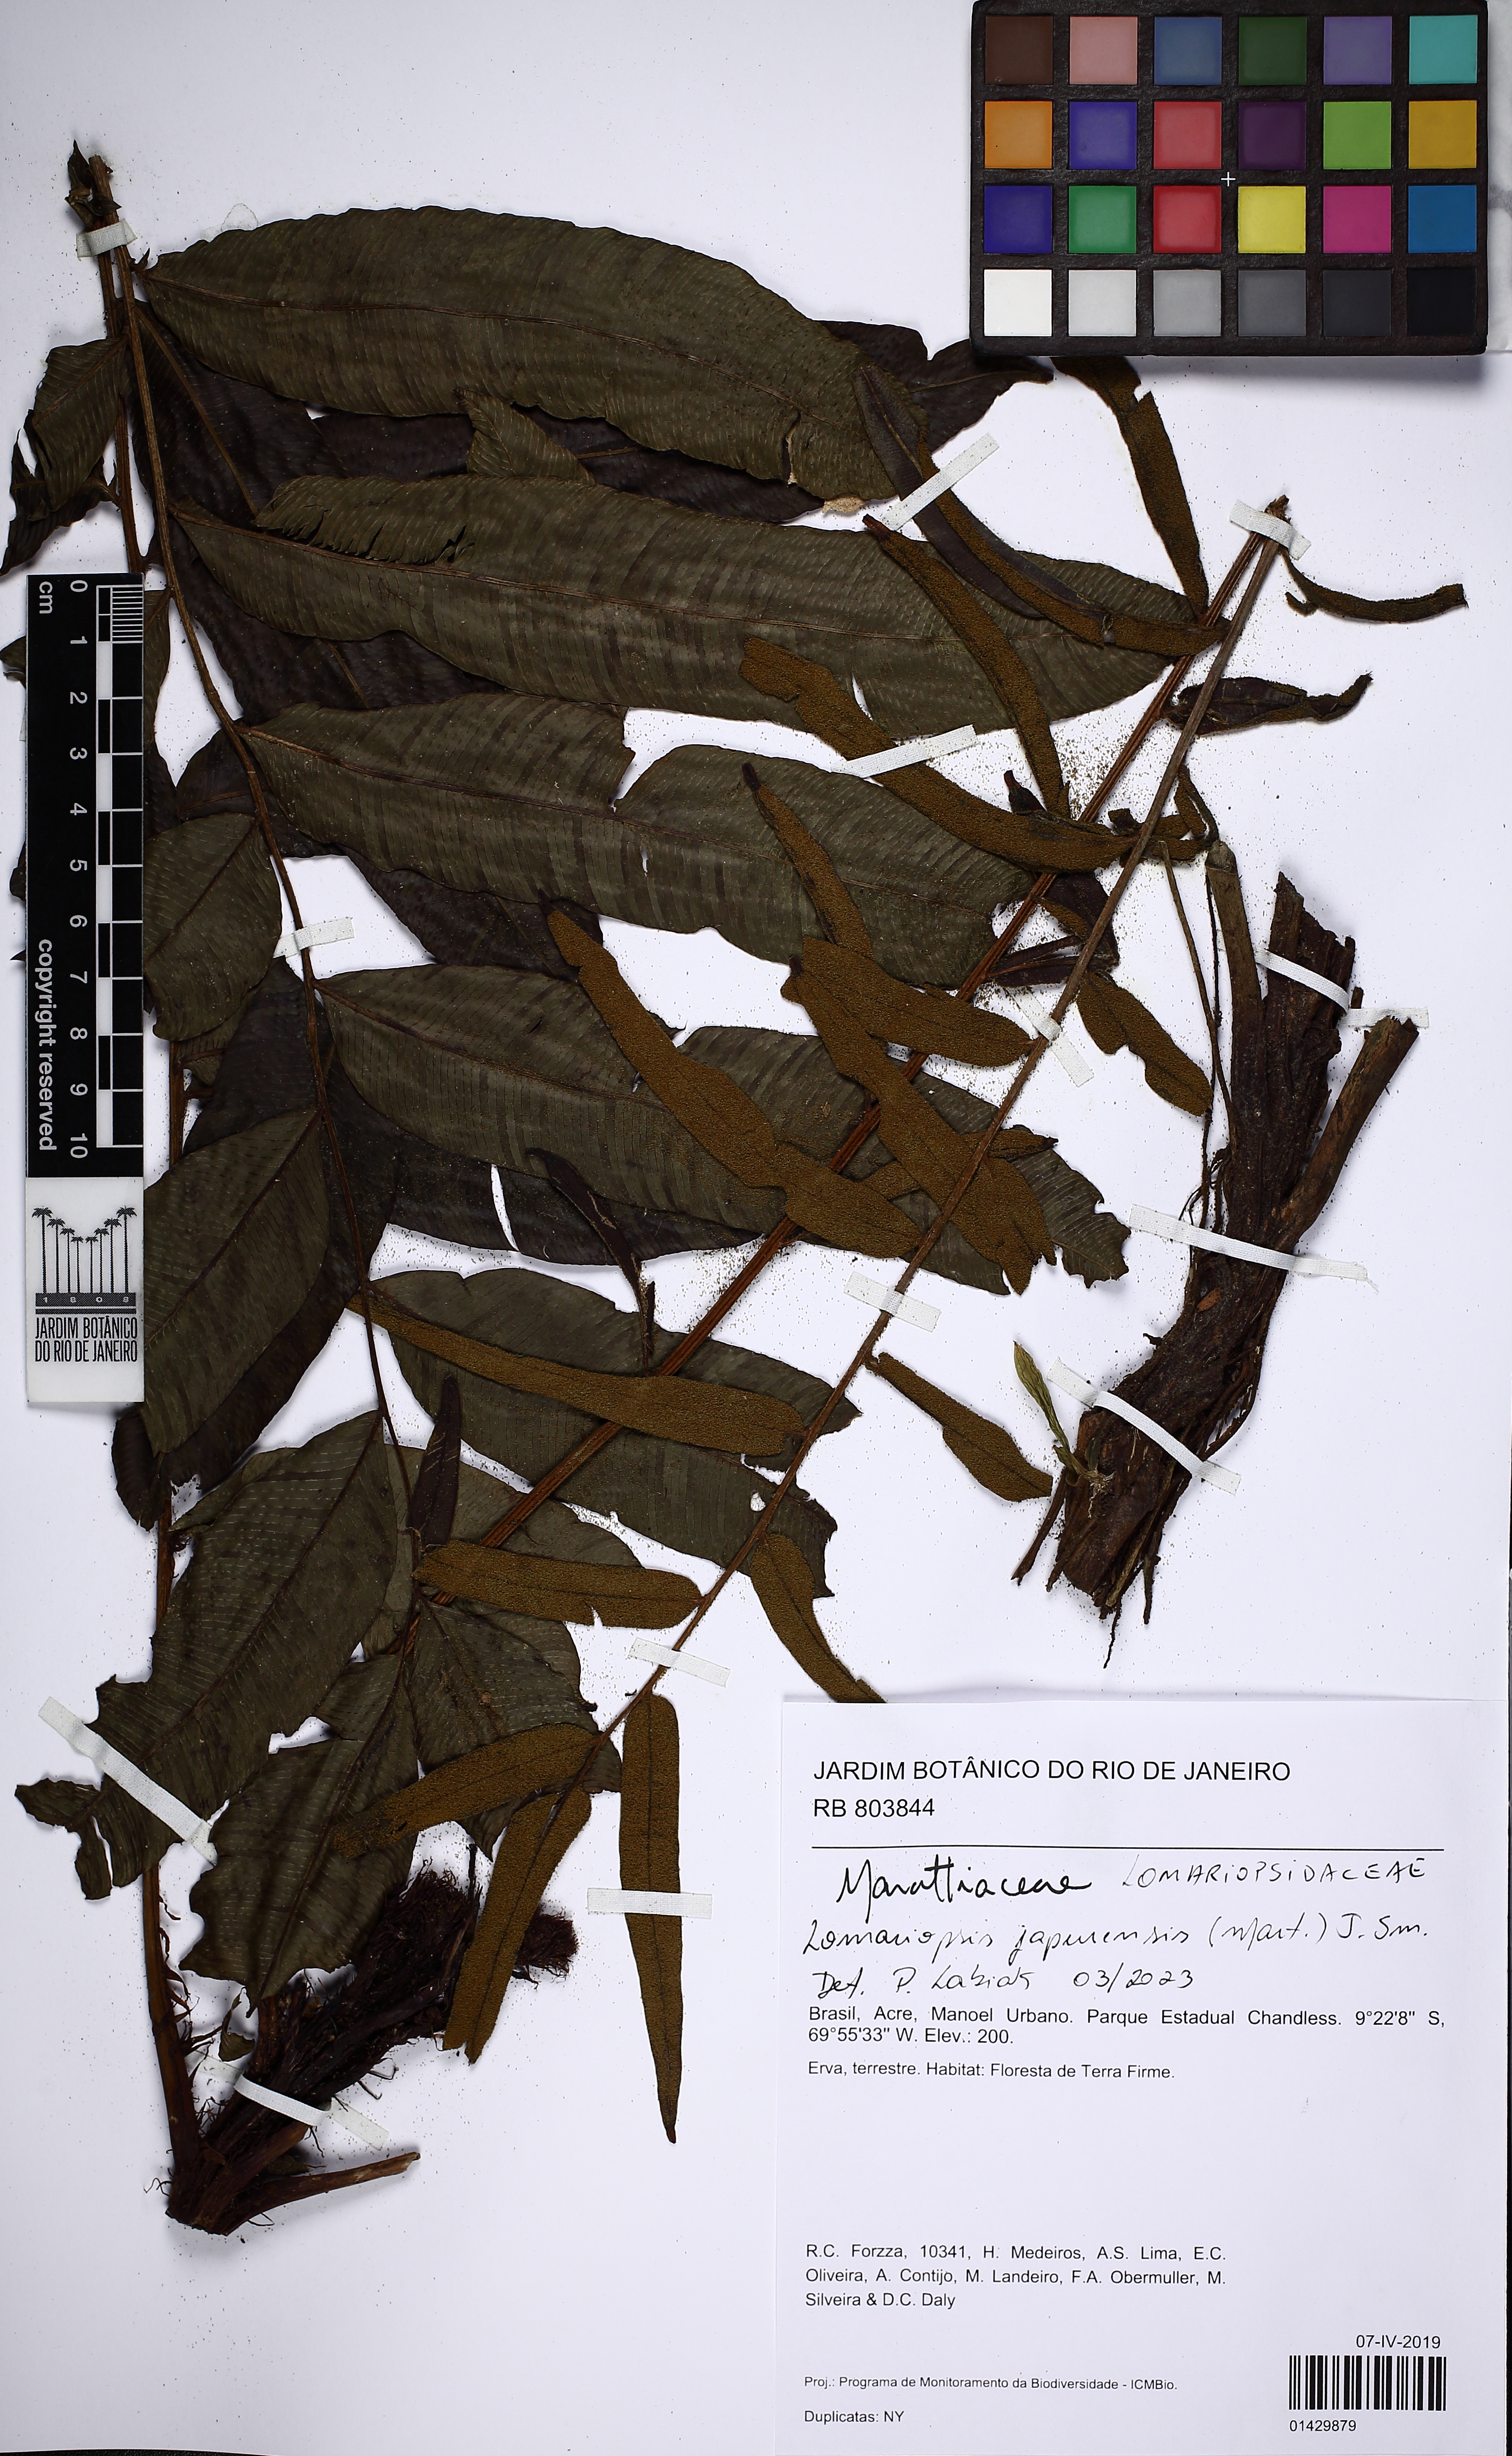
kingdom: Plantae
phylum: Tracheophyta
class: Polypodiopsida
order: Polypodiales
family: Lomariopsidaceae
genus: Lomariopsis
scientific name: Lomariopsis japurensis
